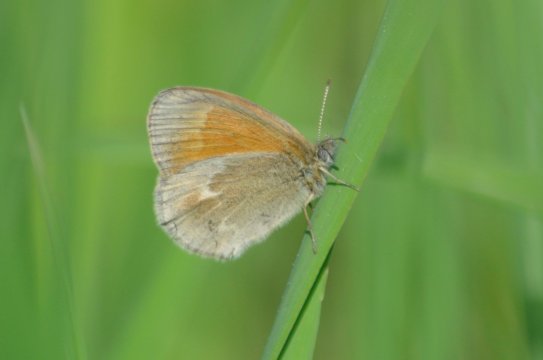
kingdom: Animalia
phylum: Arthropoda
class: Insecta
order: Lepidoptera
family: Nymphalidae
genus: Coenonympha
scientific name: Coenonympha tullia
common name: Large Heath
